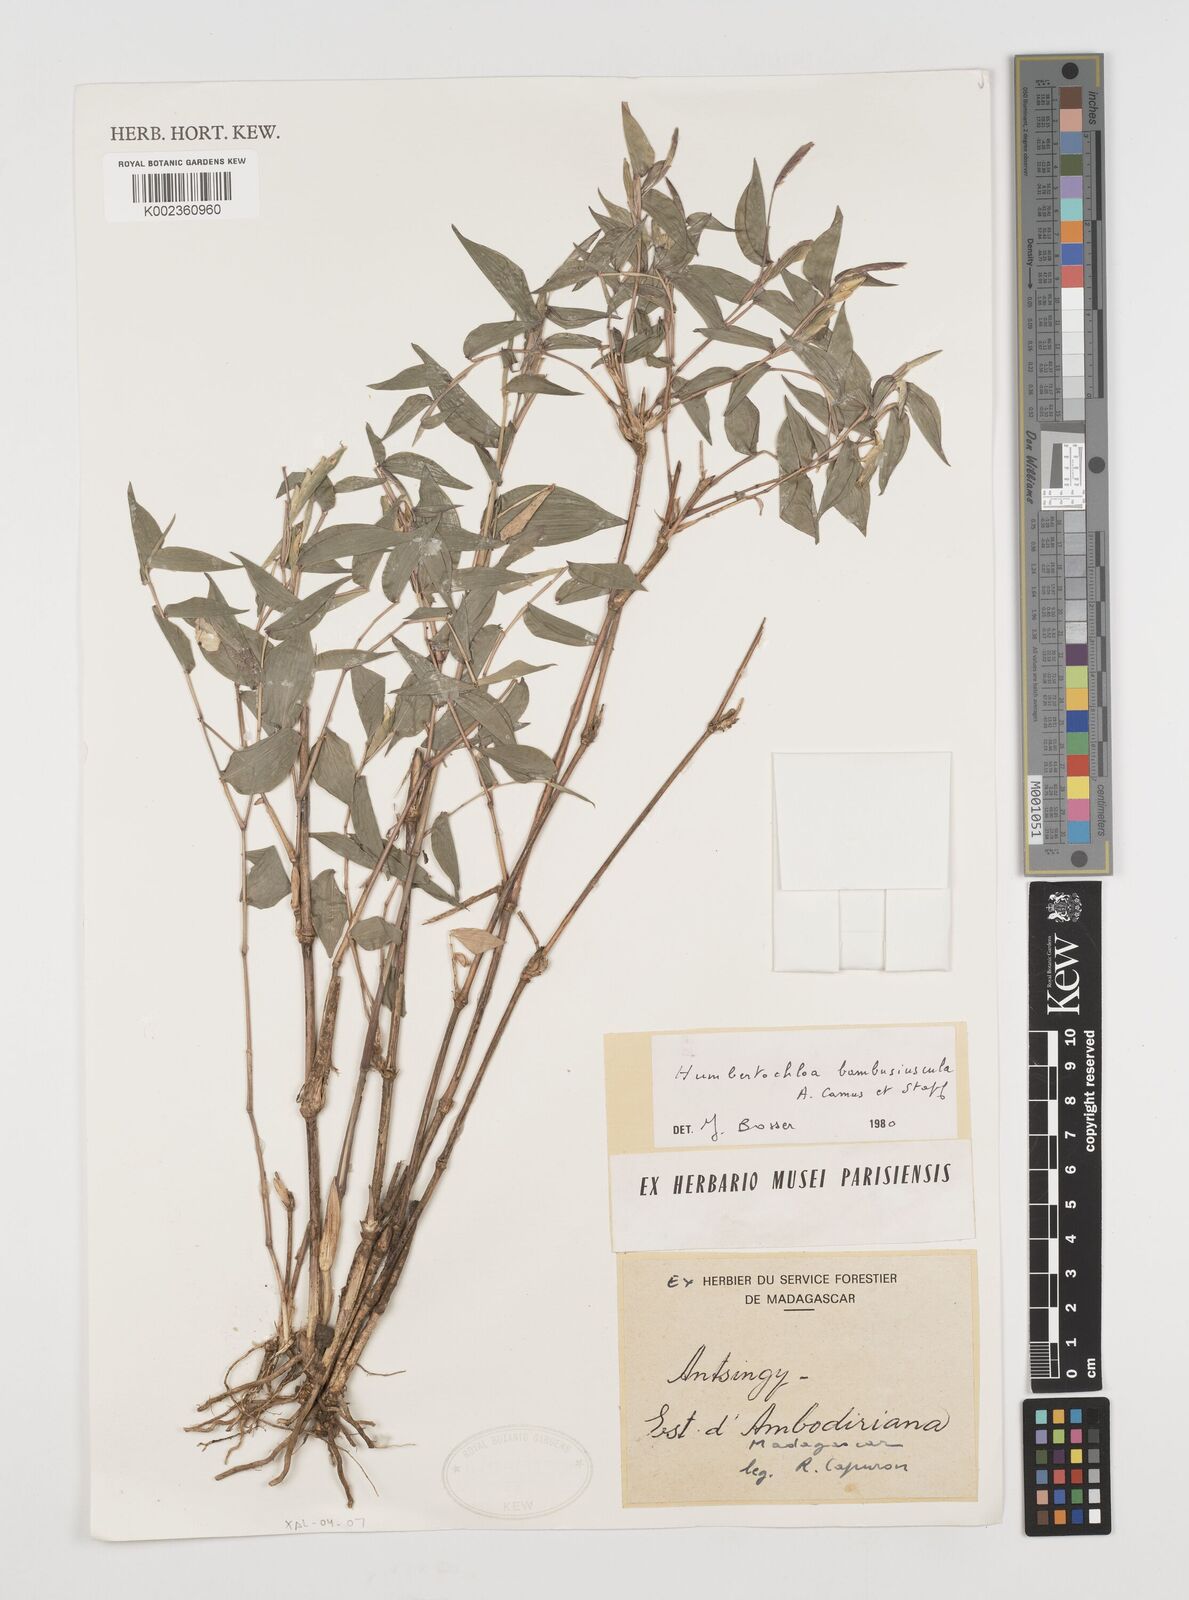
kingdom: Plantae
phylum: Tracheophyta
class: Liliopsida
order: Poales
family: Poaceae
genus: Humbertochloa
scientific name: Humbertochloa bambusiuscula
